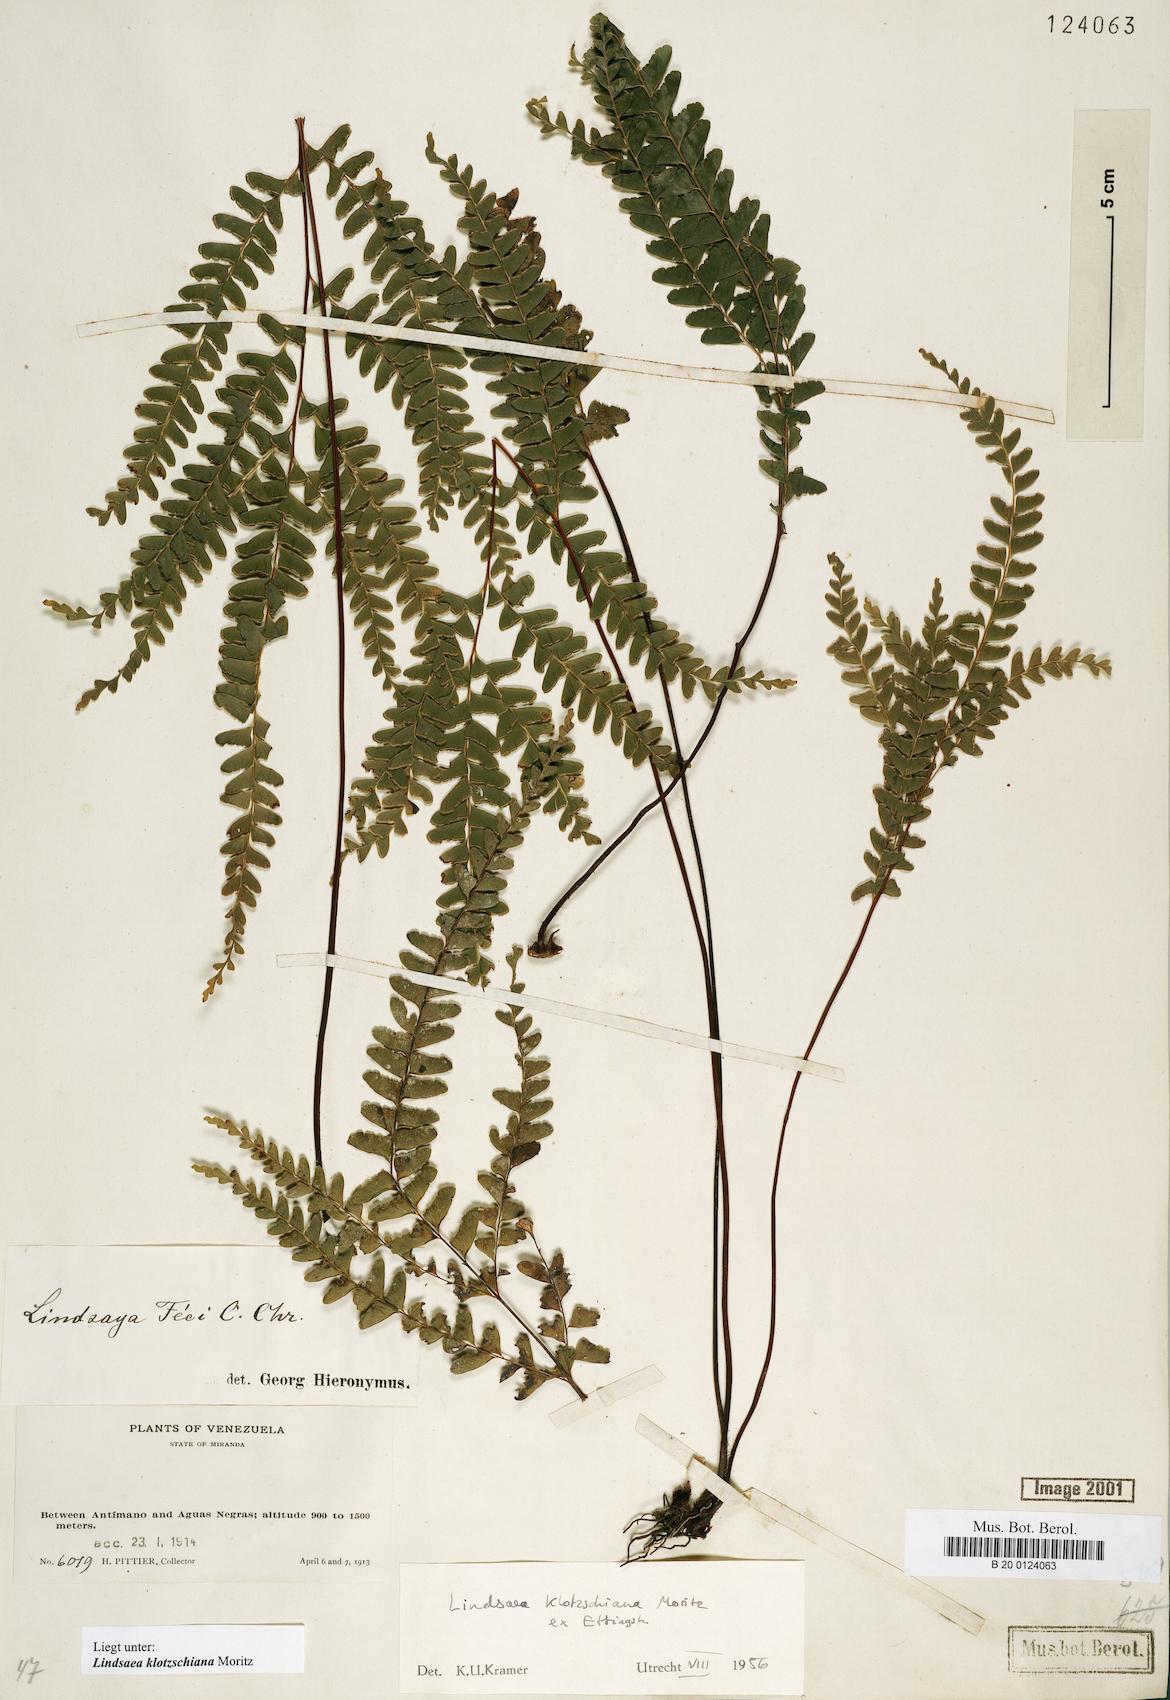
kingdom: Plantae
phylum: Tracheophyta
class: Polypodiopsida
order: Polypodiales
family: Lindsaeaceae
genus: Lindsaea
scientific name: Lindsaea klotzschiana
